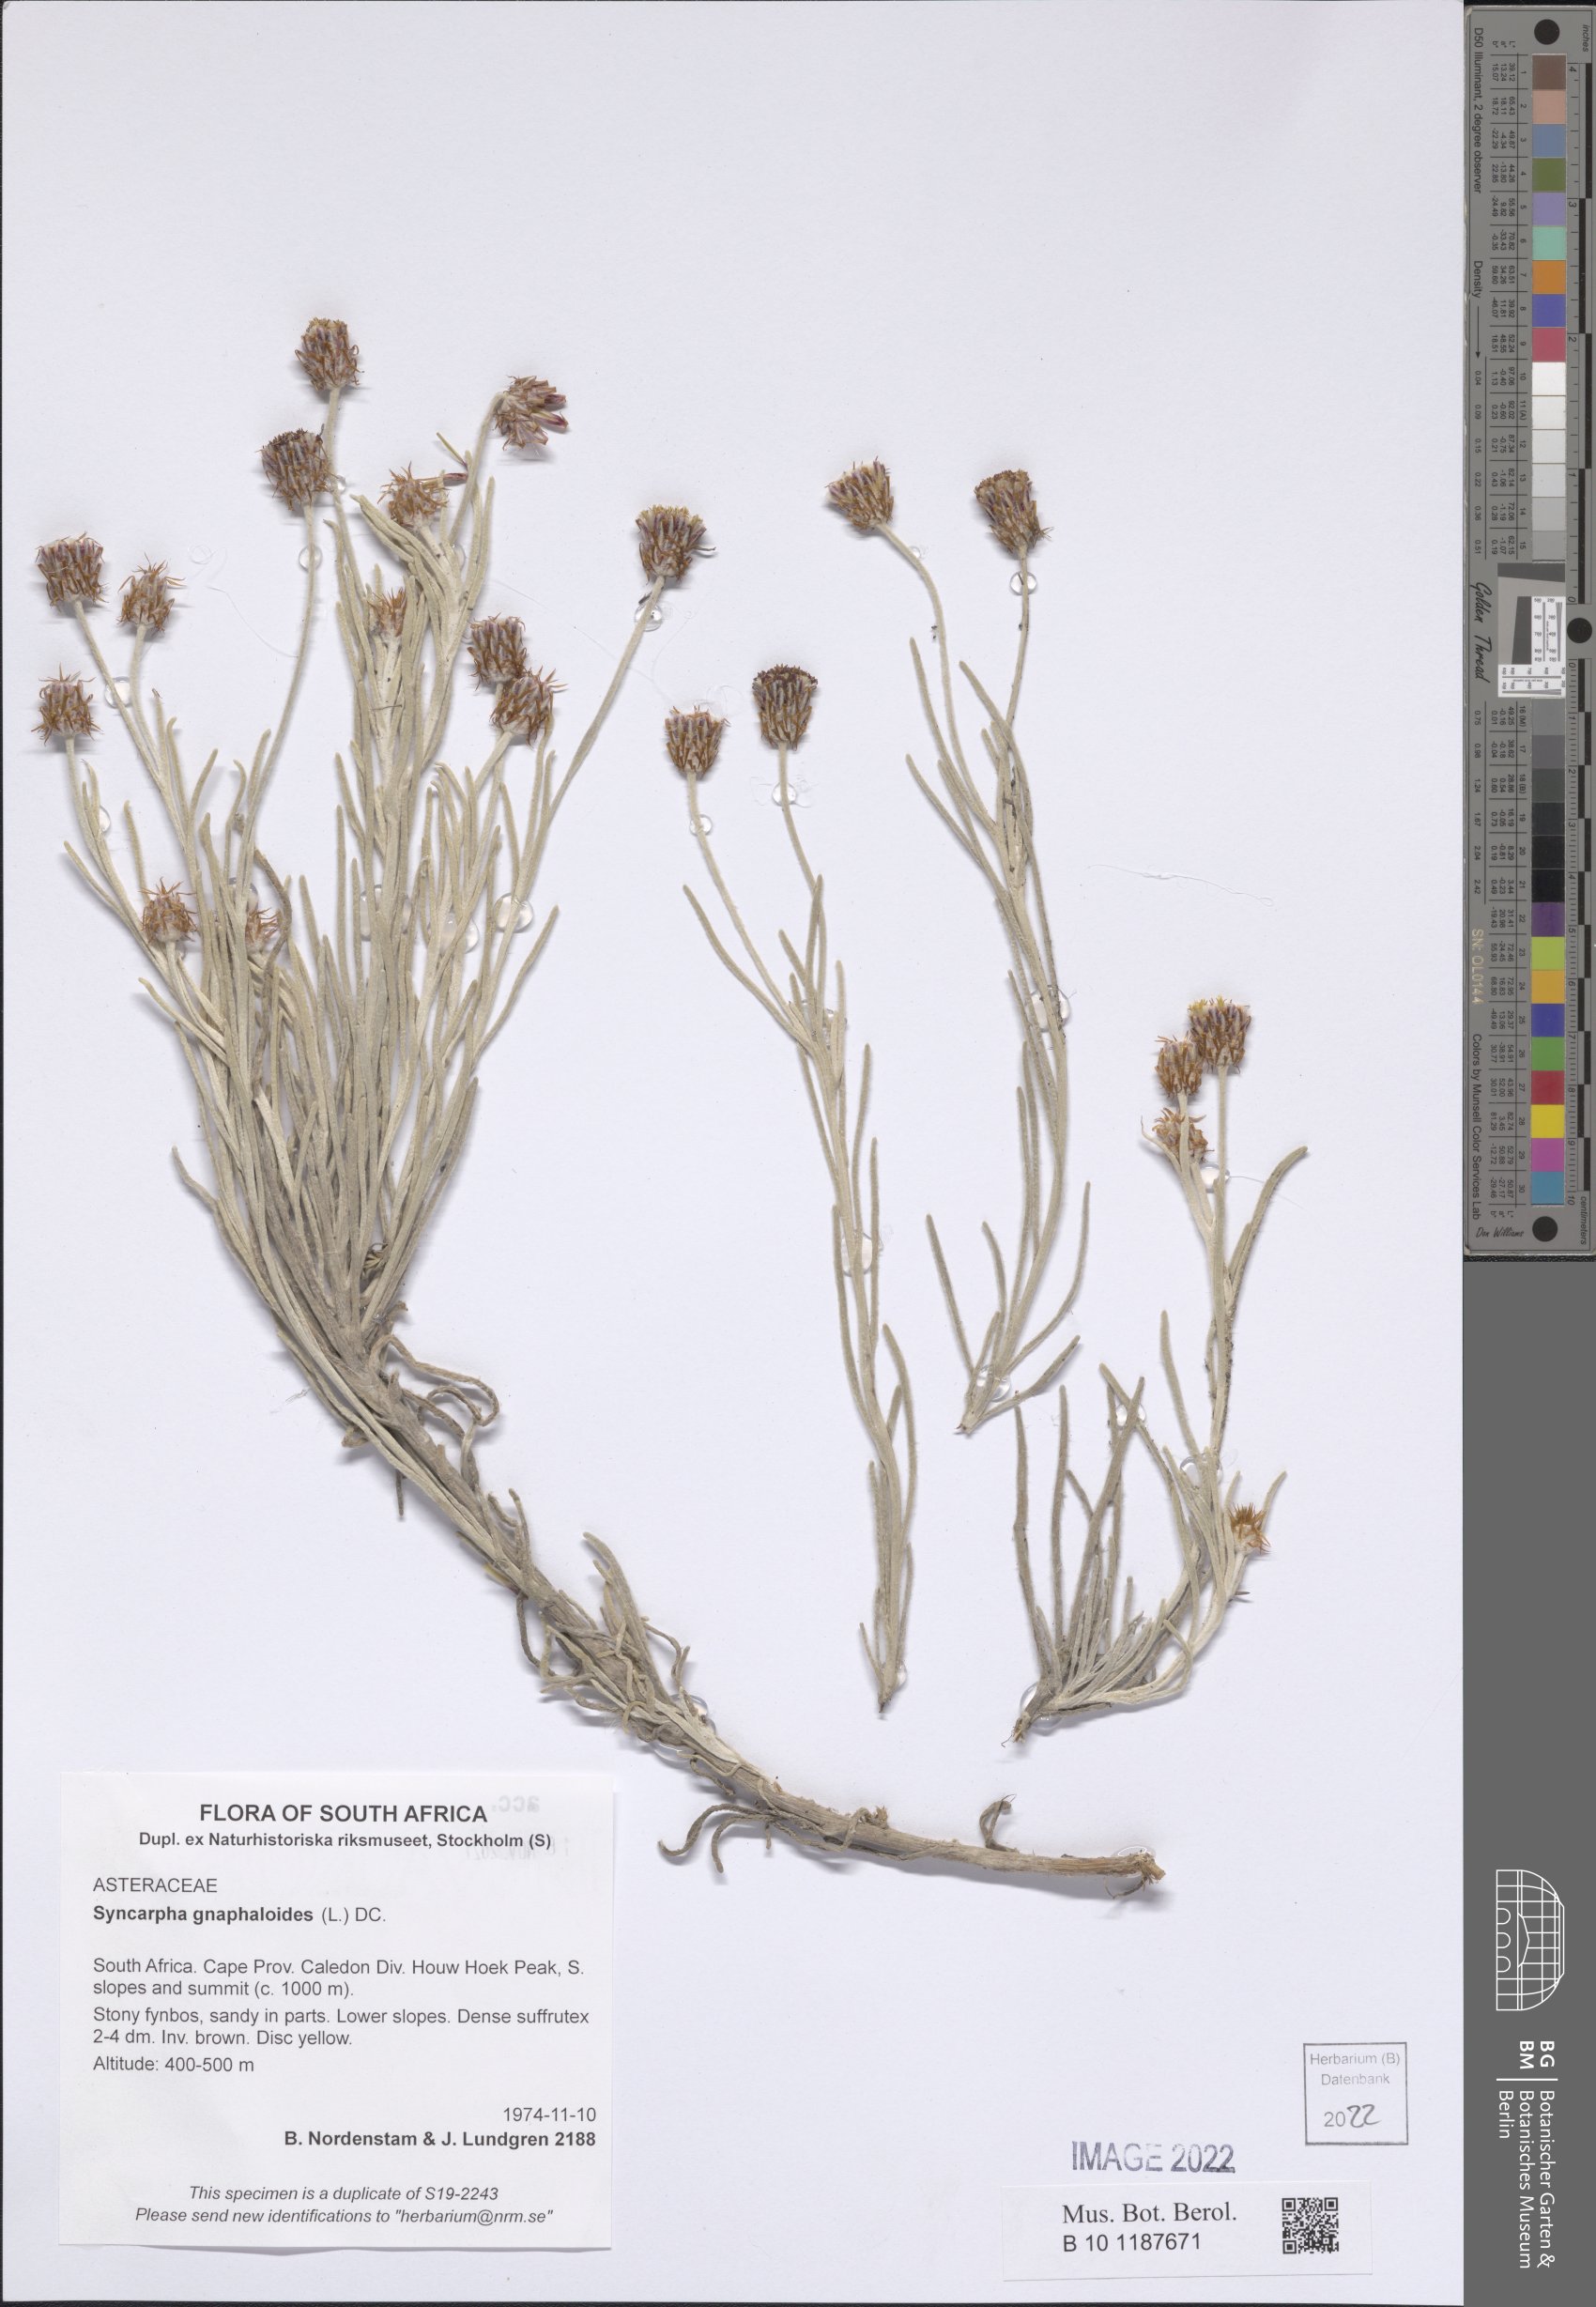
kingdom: Plantae
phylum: Tracheophyta
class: Magnoliopsida
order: Asterales
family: Asteraceae
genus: Syncarpha
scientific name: Syncarpha gnaphaloides
